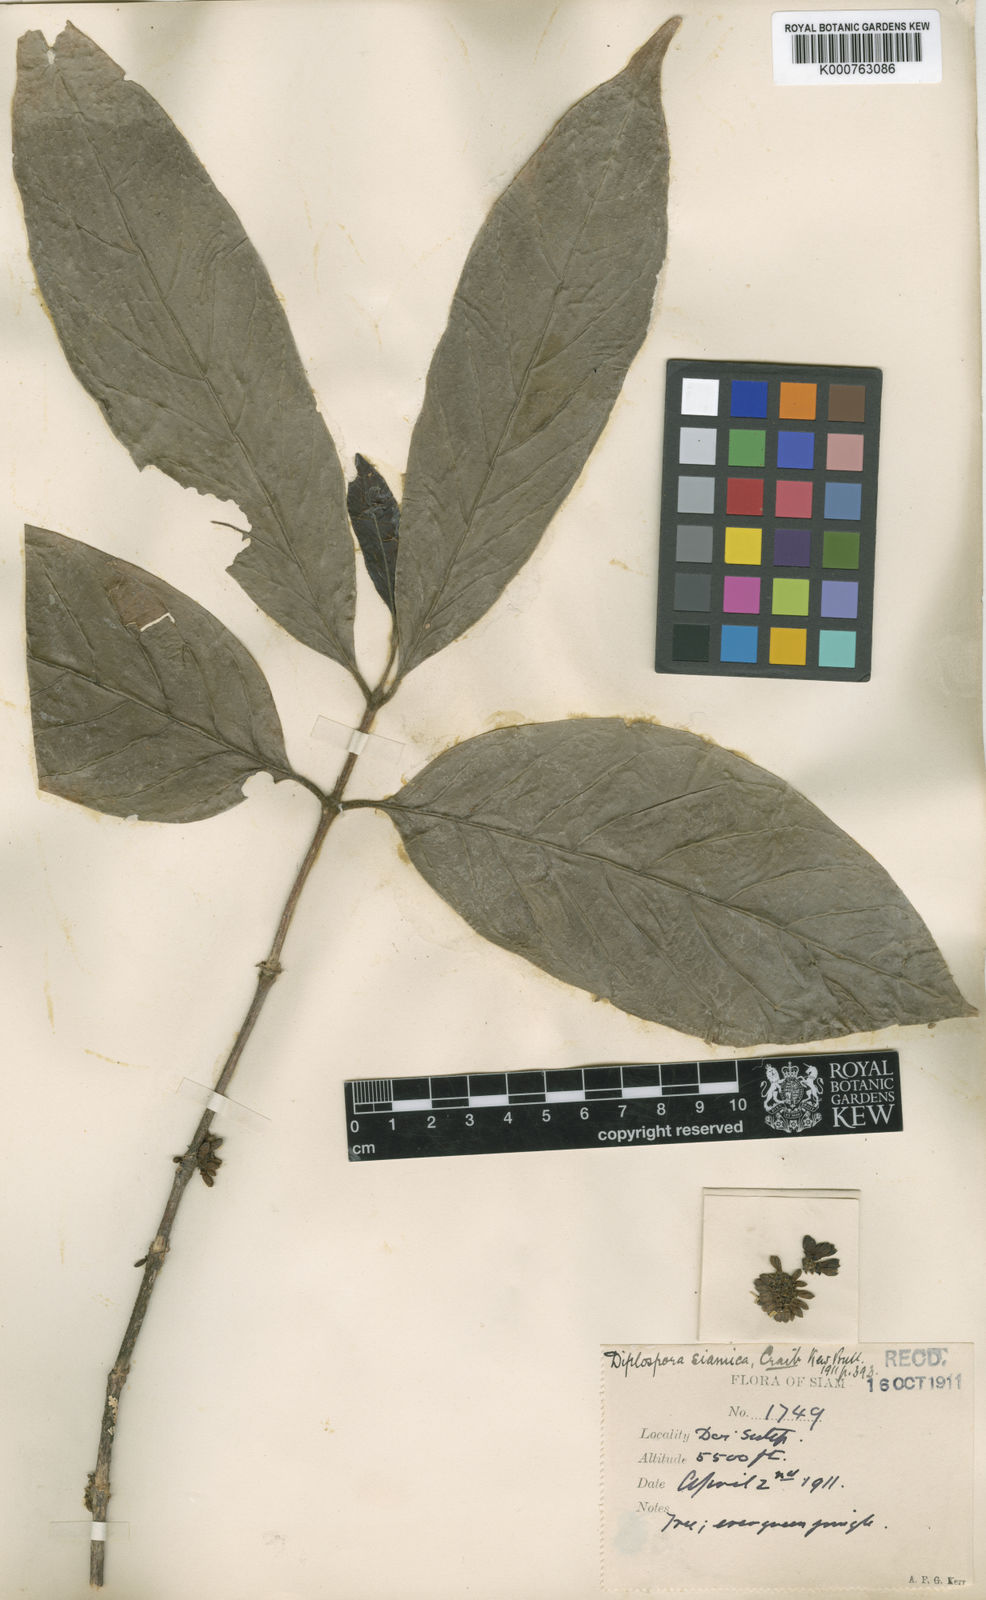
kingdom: Plantae
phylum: Tracheophyta
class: Magnoliopsida
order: Gentianales
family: Rubiaceae
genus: Diplospora
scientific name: Diplospora siamica
